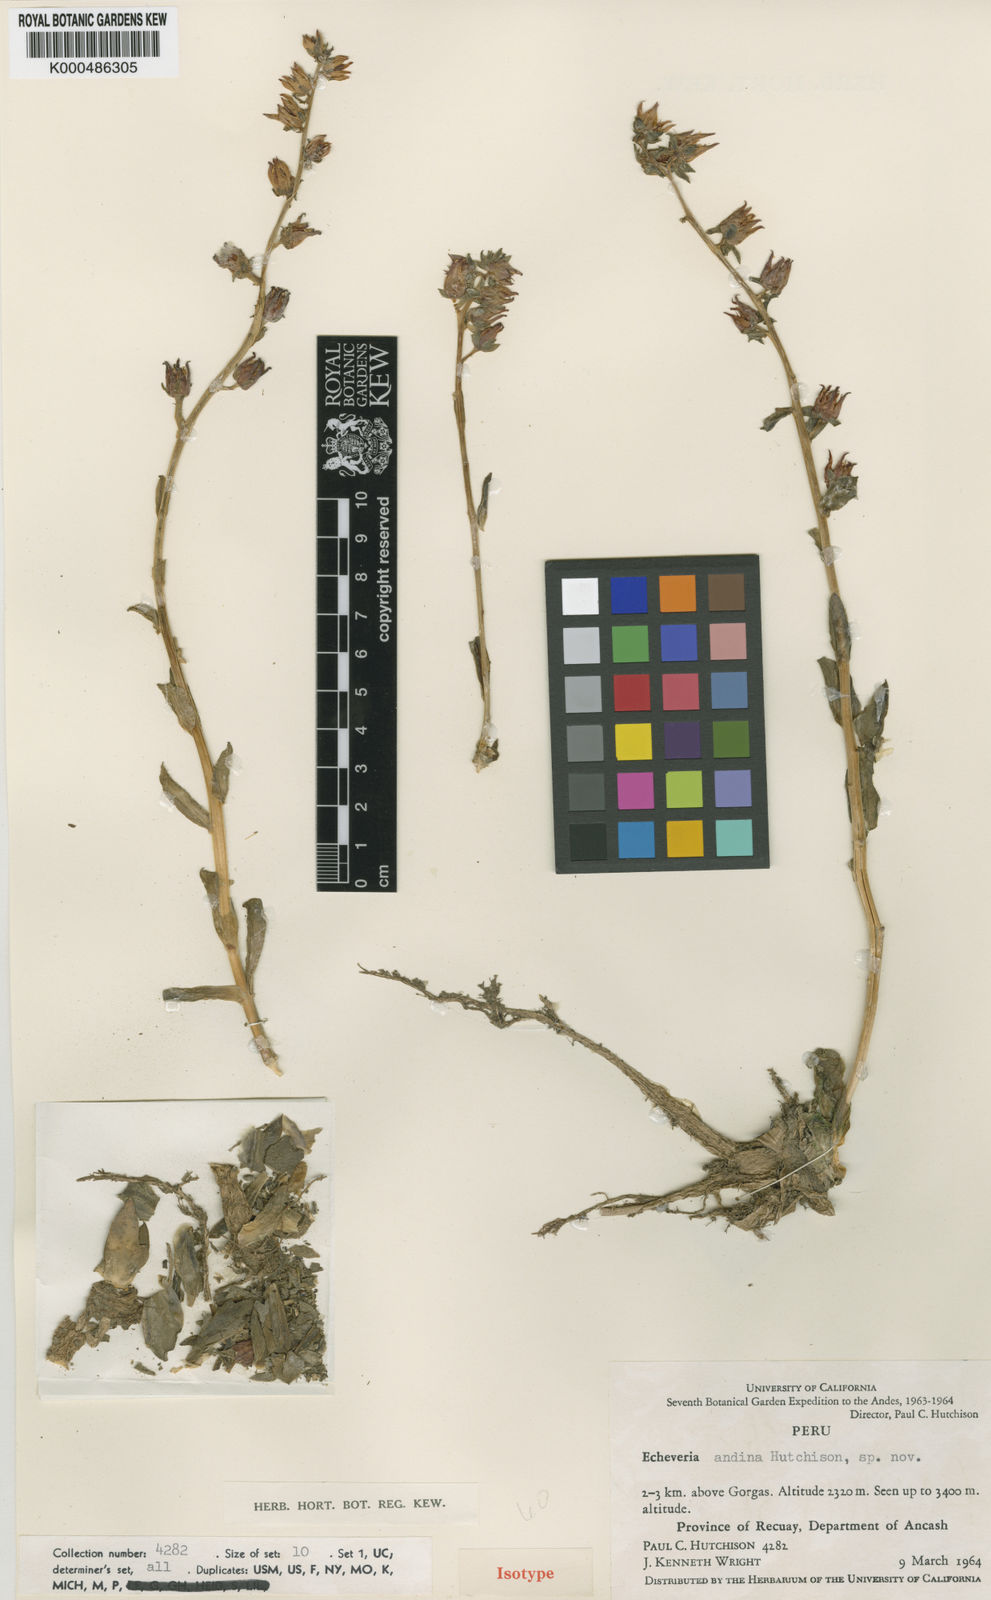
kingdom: Plantae
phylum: Tracheophyta
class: Magnoliopsida
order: Saxifragales
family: Crassulaceae
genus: Echeveria
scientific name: Echeveria
